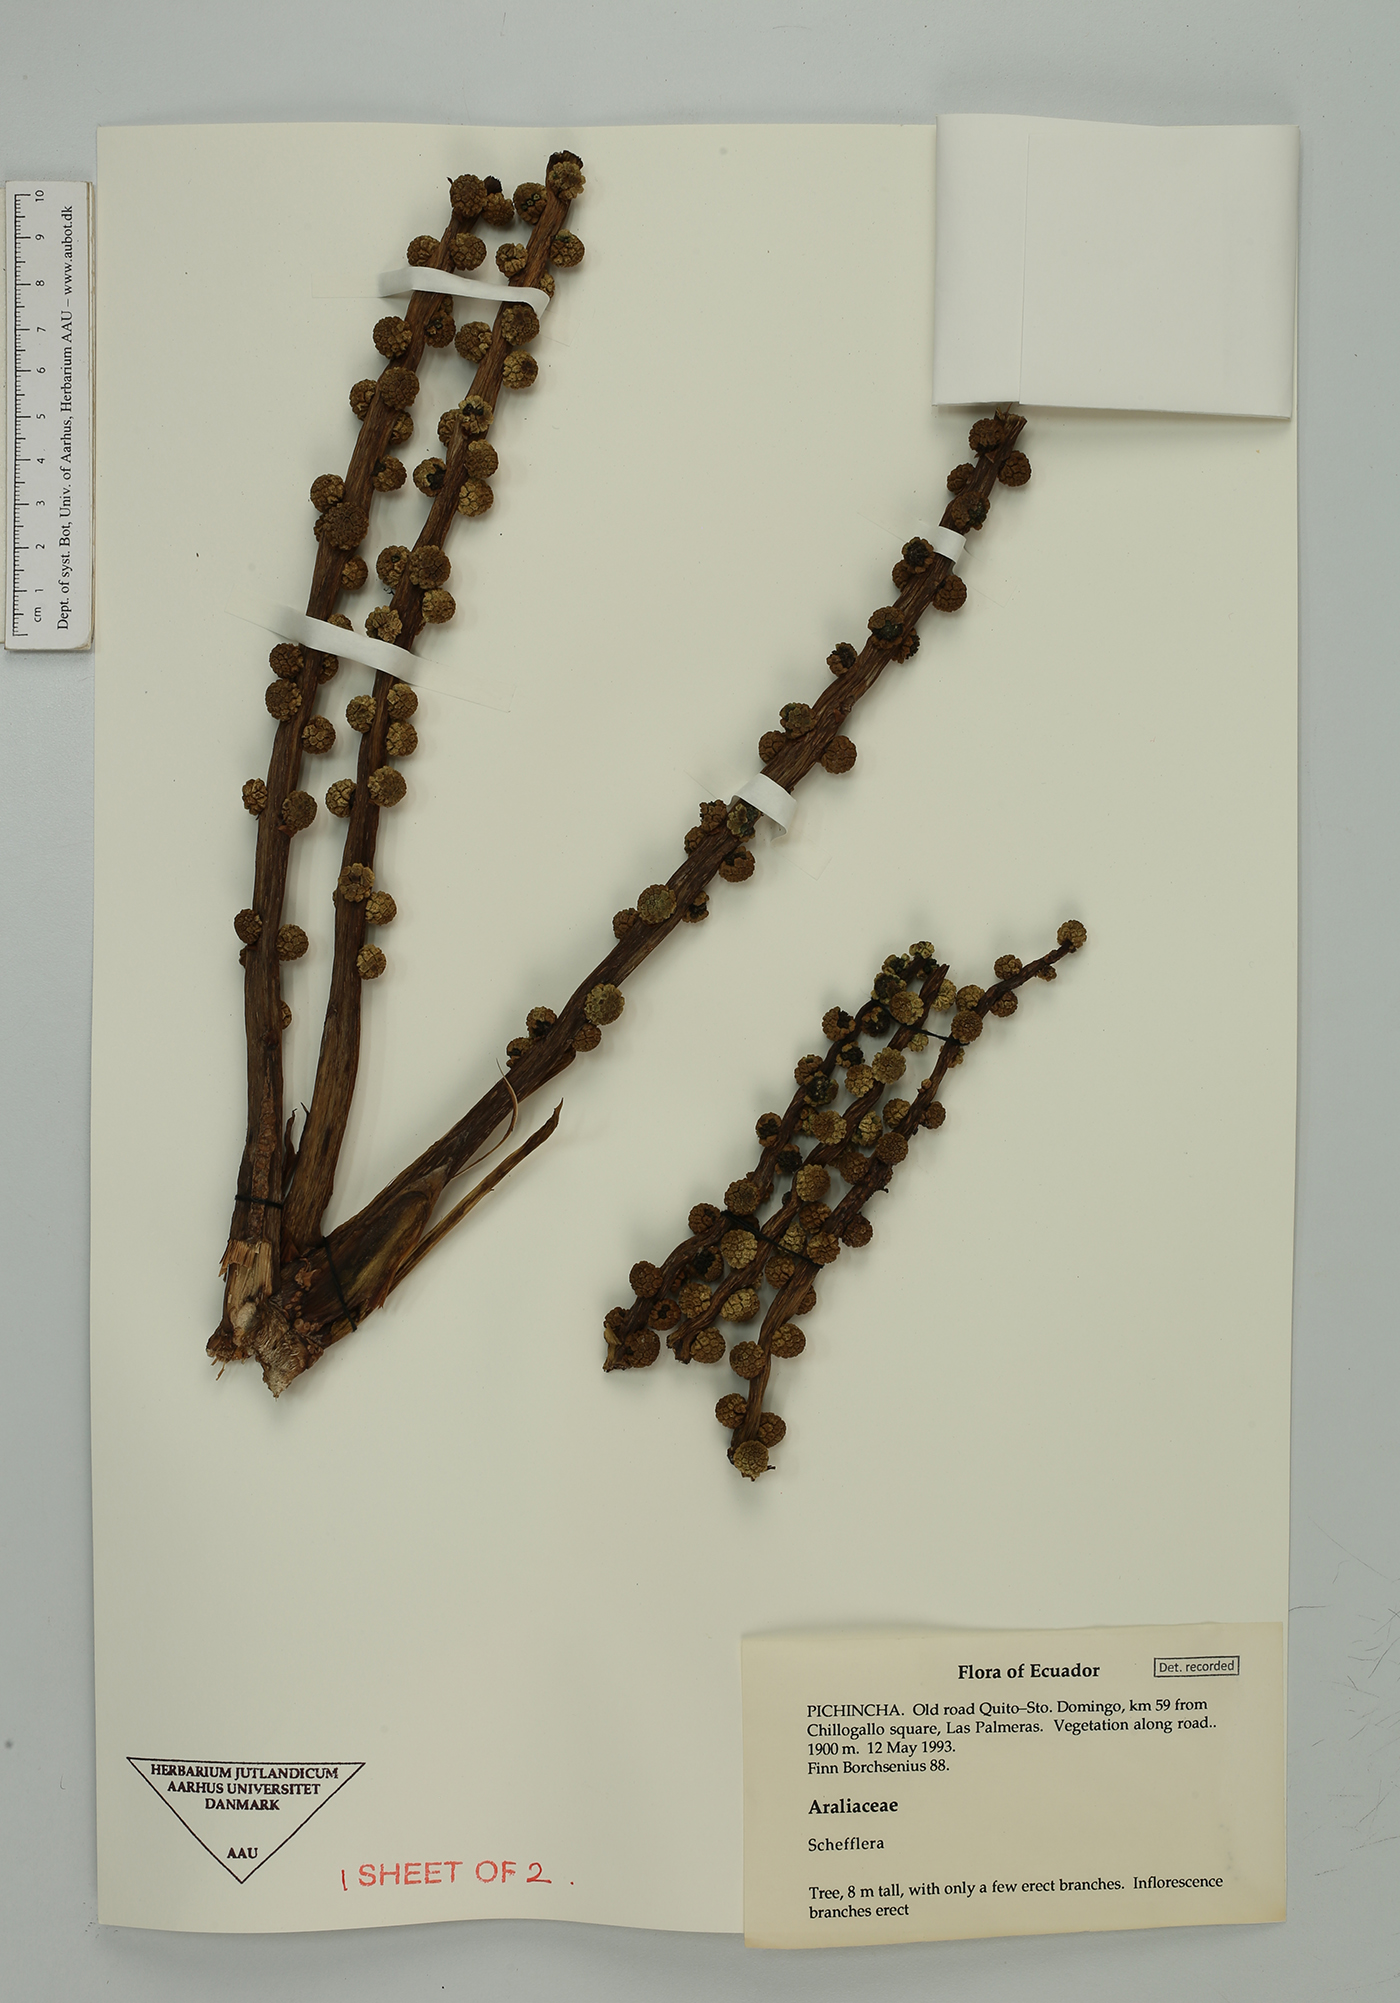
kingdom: Plantae
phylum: Tracheophyta
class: Magnoliopsida
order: Apiales
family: Araliaceae
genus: Sciodaphyllum
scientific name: Sciodaphyllum
